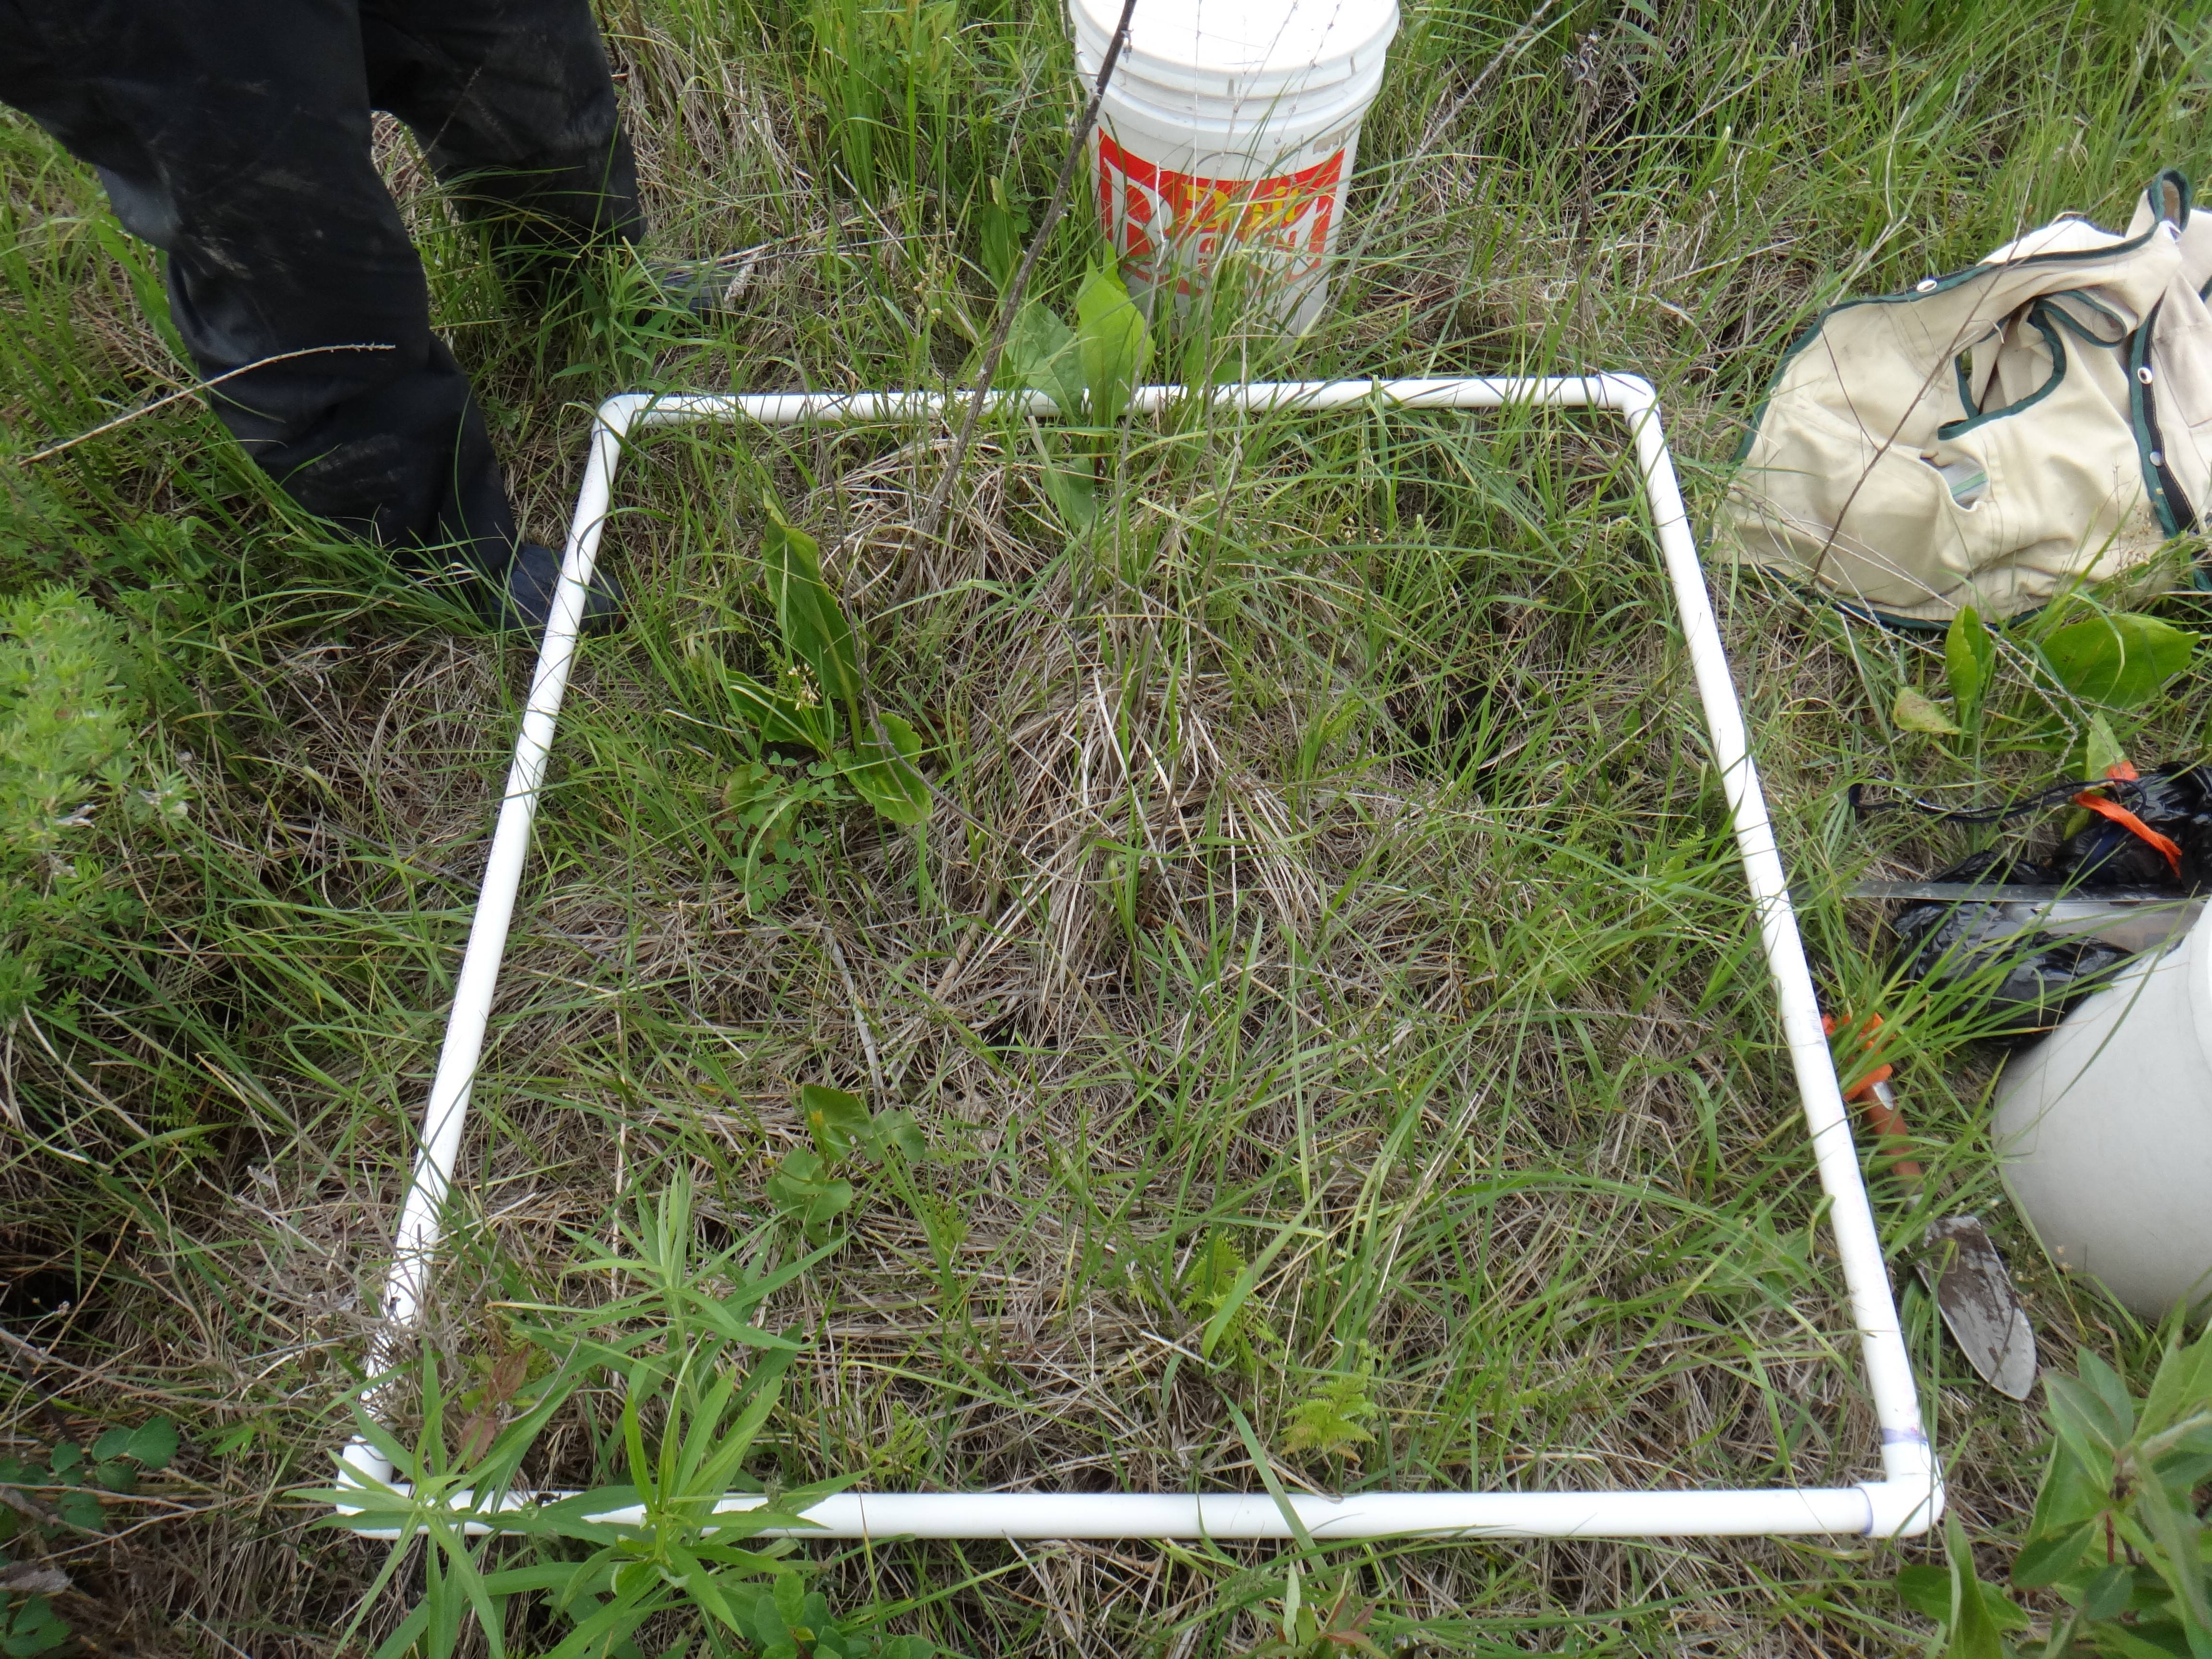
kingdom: Plantae
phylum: Tracheophyta
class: Magnoliopsida
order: Asterales
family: Asteraceae
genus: Solidago
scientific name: Solidago patula
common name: Rough-leaf goldenrod
